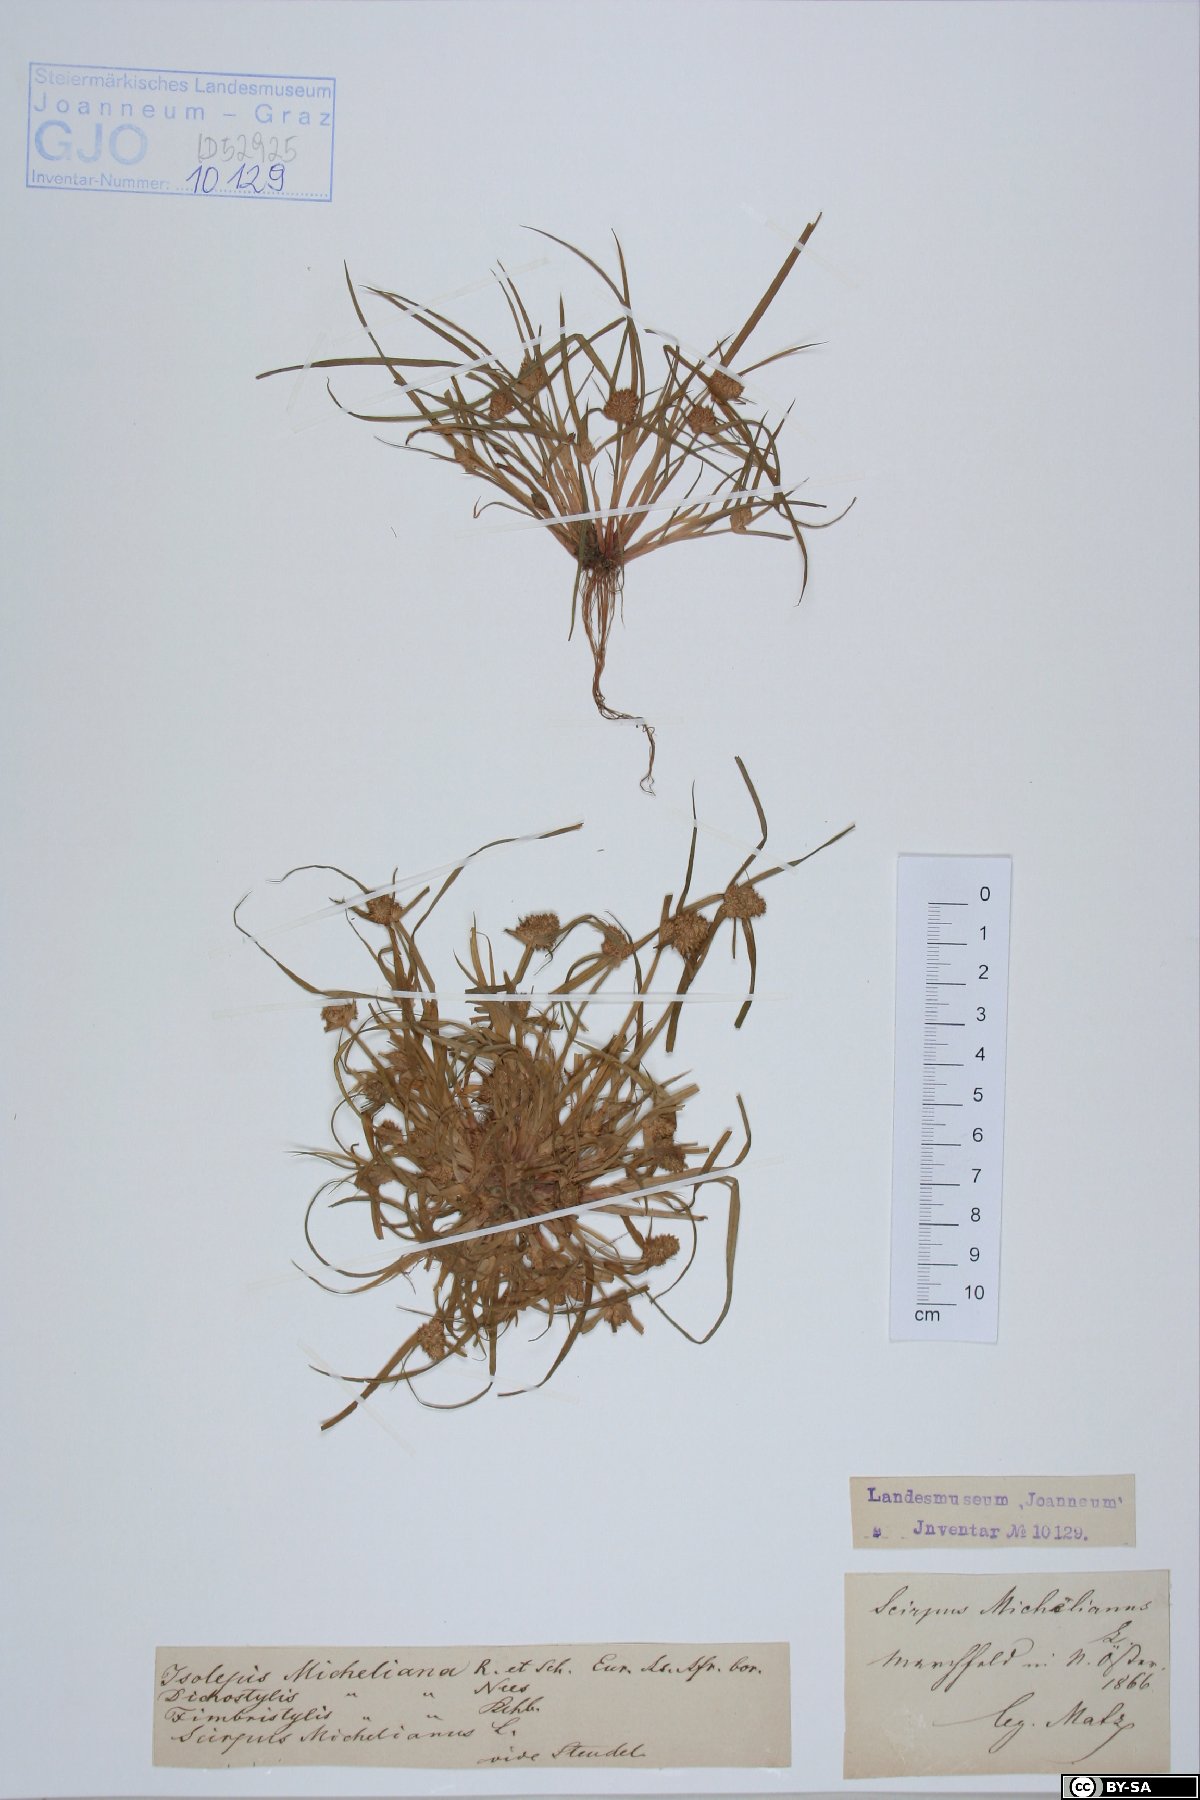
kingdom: Plantae
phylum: Tracheophyta
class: Liliopsida
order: Poales
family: Cyperaceae
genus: Cyperus
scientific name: Cyperus michelianus
